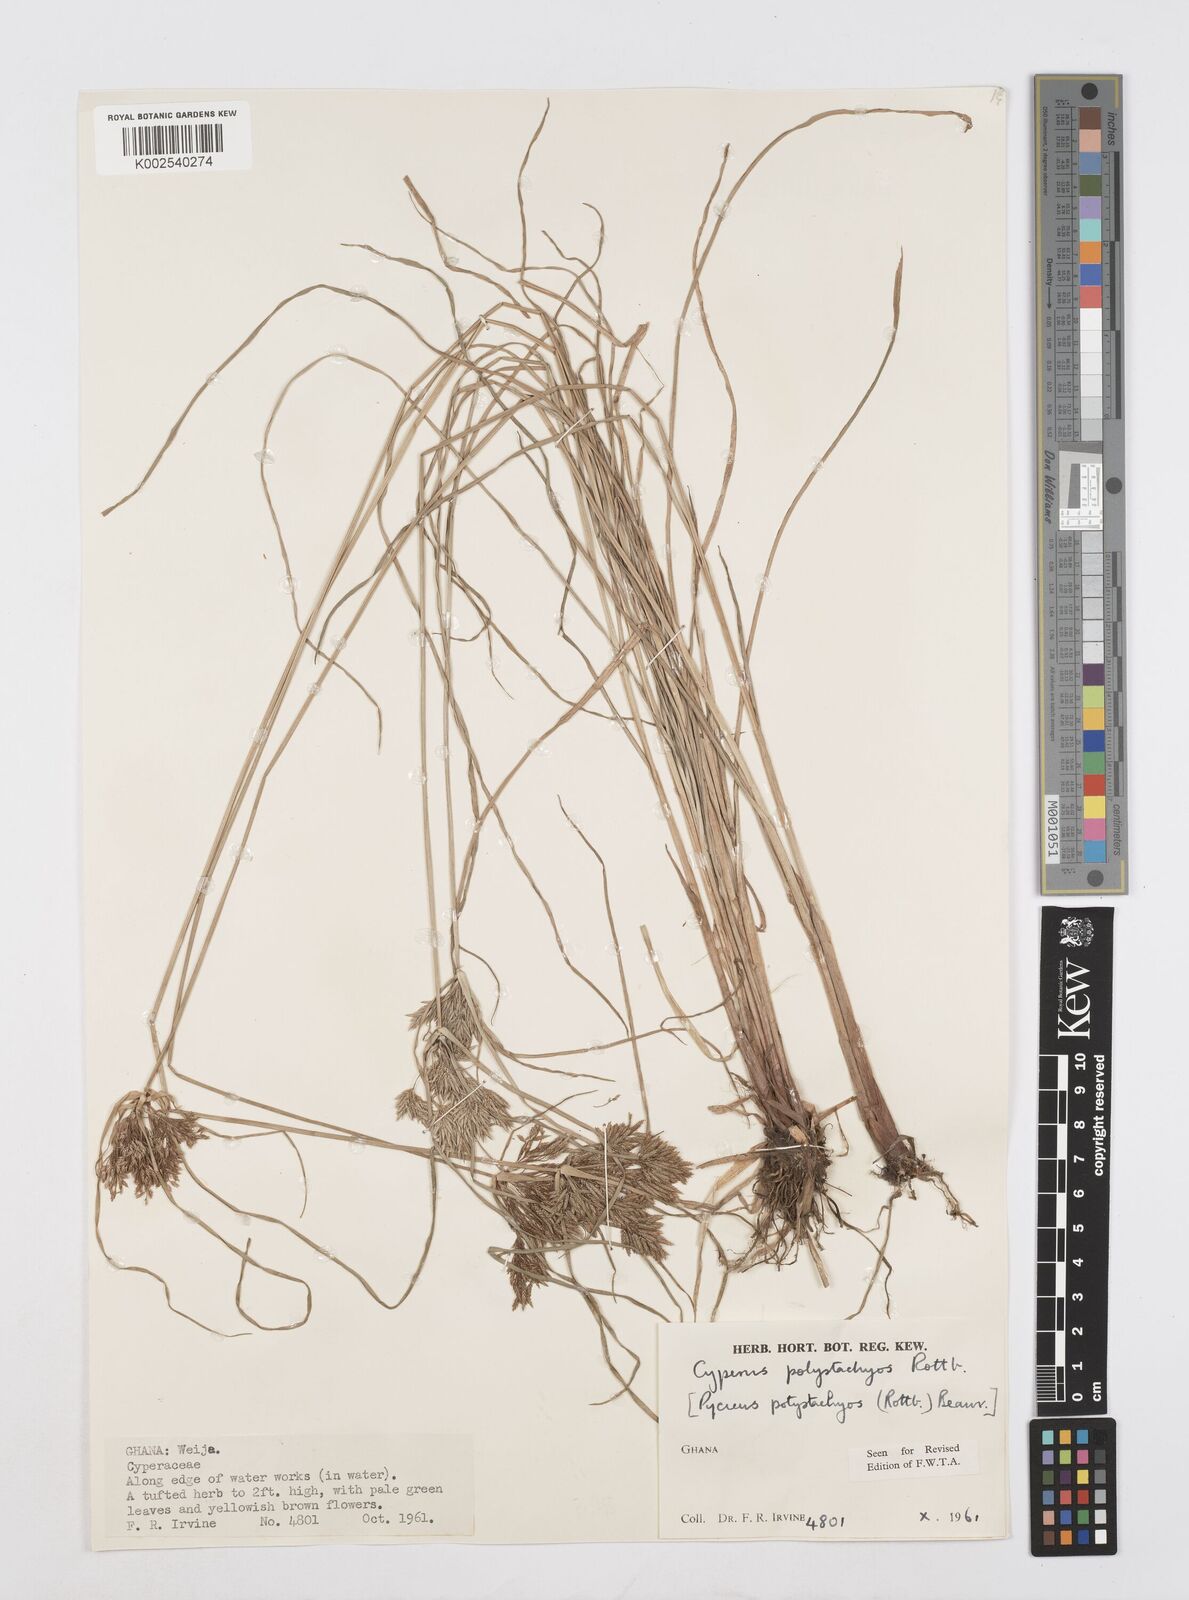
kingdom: Plantae
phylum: Tracheophyta
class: Liliopsida
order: Poales
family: Cyperaceae
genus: Cyperus
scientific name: Cyperus polystachyos
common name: Bunchy flat sedge
